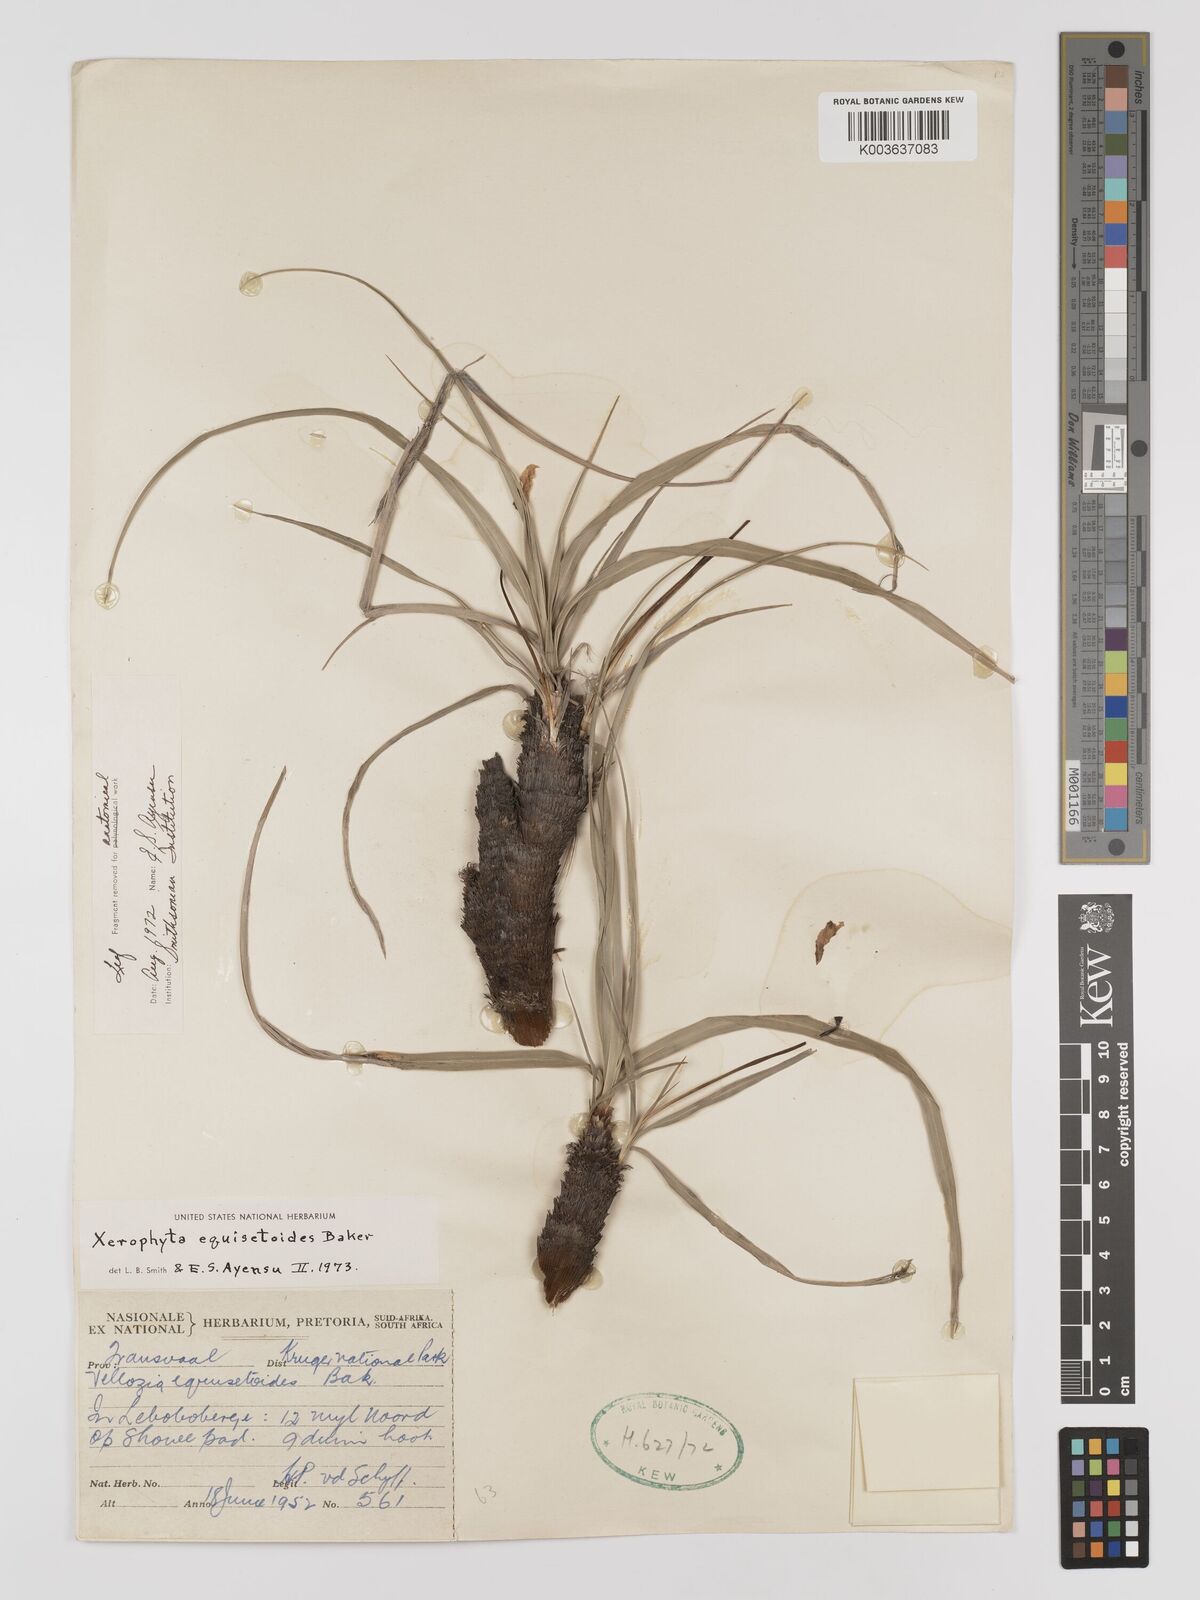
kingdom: Plantae
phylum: Tracheophyta
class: Liliopsida
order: Pandanales
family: Velloziaceae
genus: Xerophyta
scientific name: Xerophyta equisetoides
